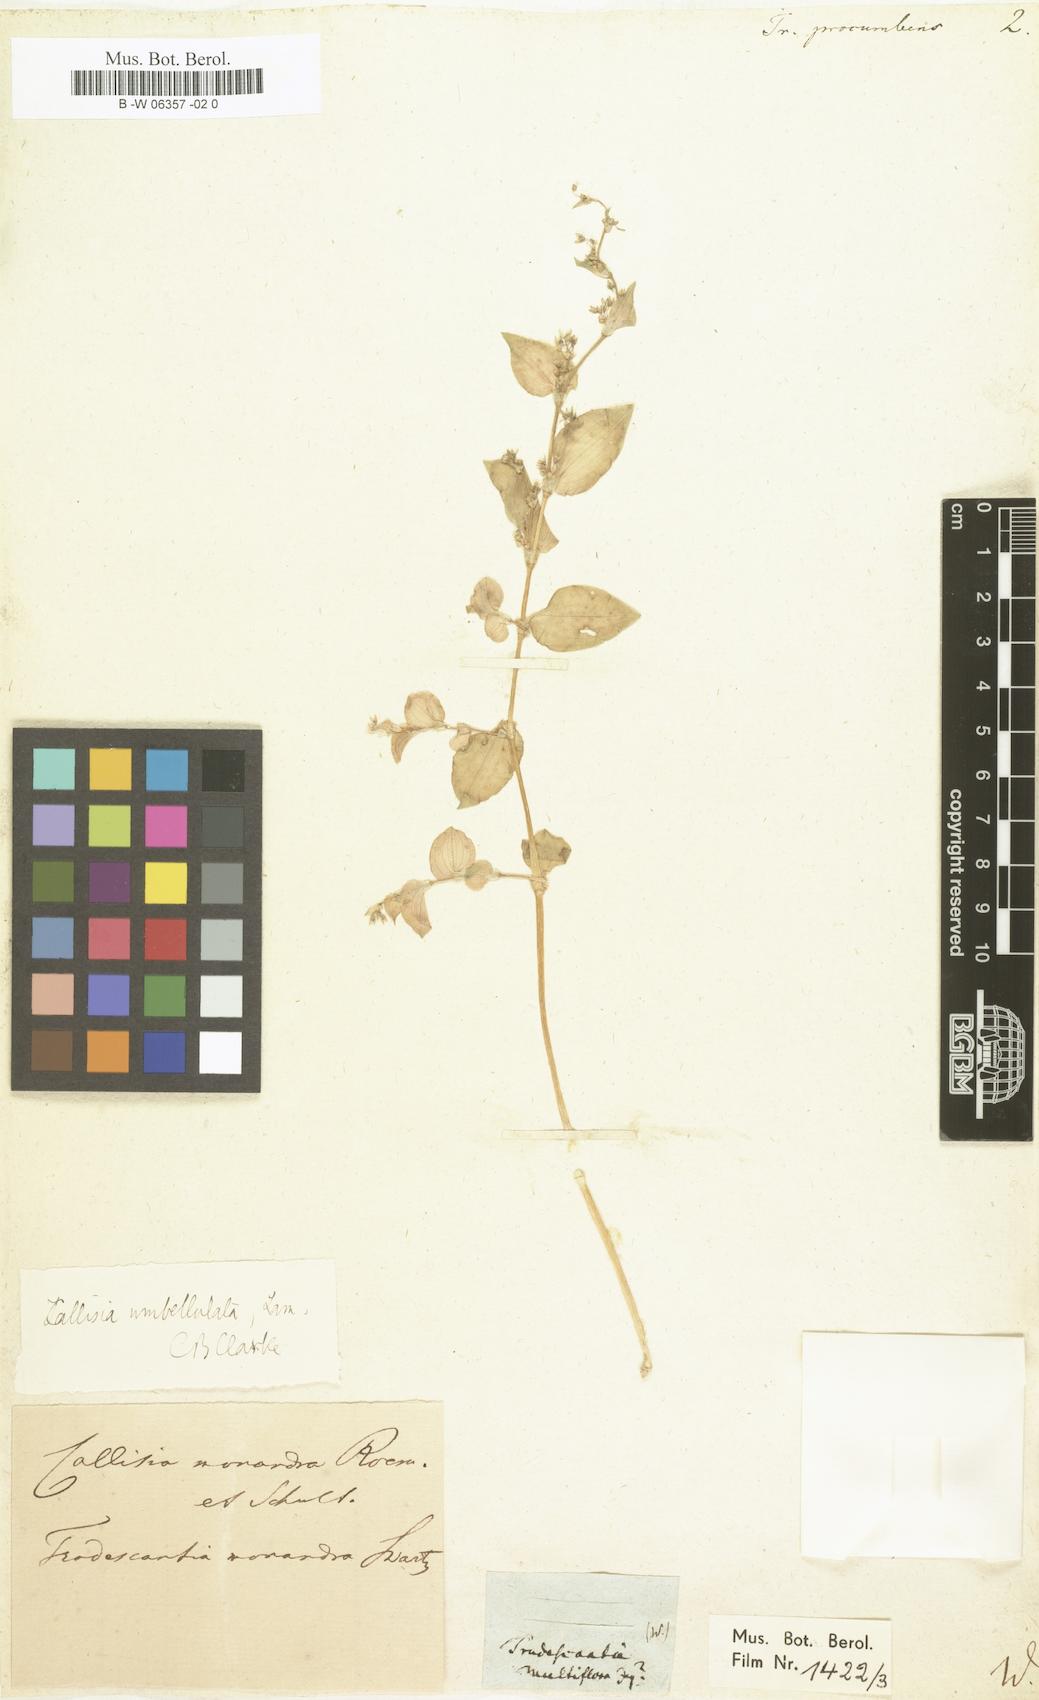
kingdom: Plantae
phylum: Tracheophyta
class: Liliopsida
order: Commelinales
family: Commelinaceae
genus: Callisia
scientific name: Callisia procumbens
